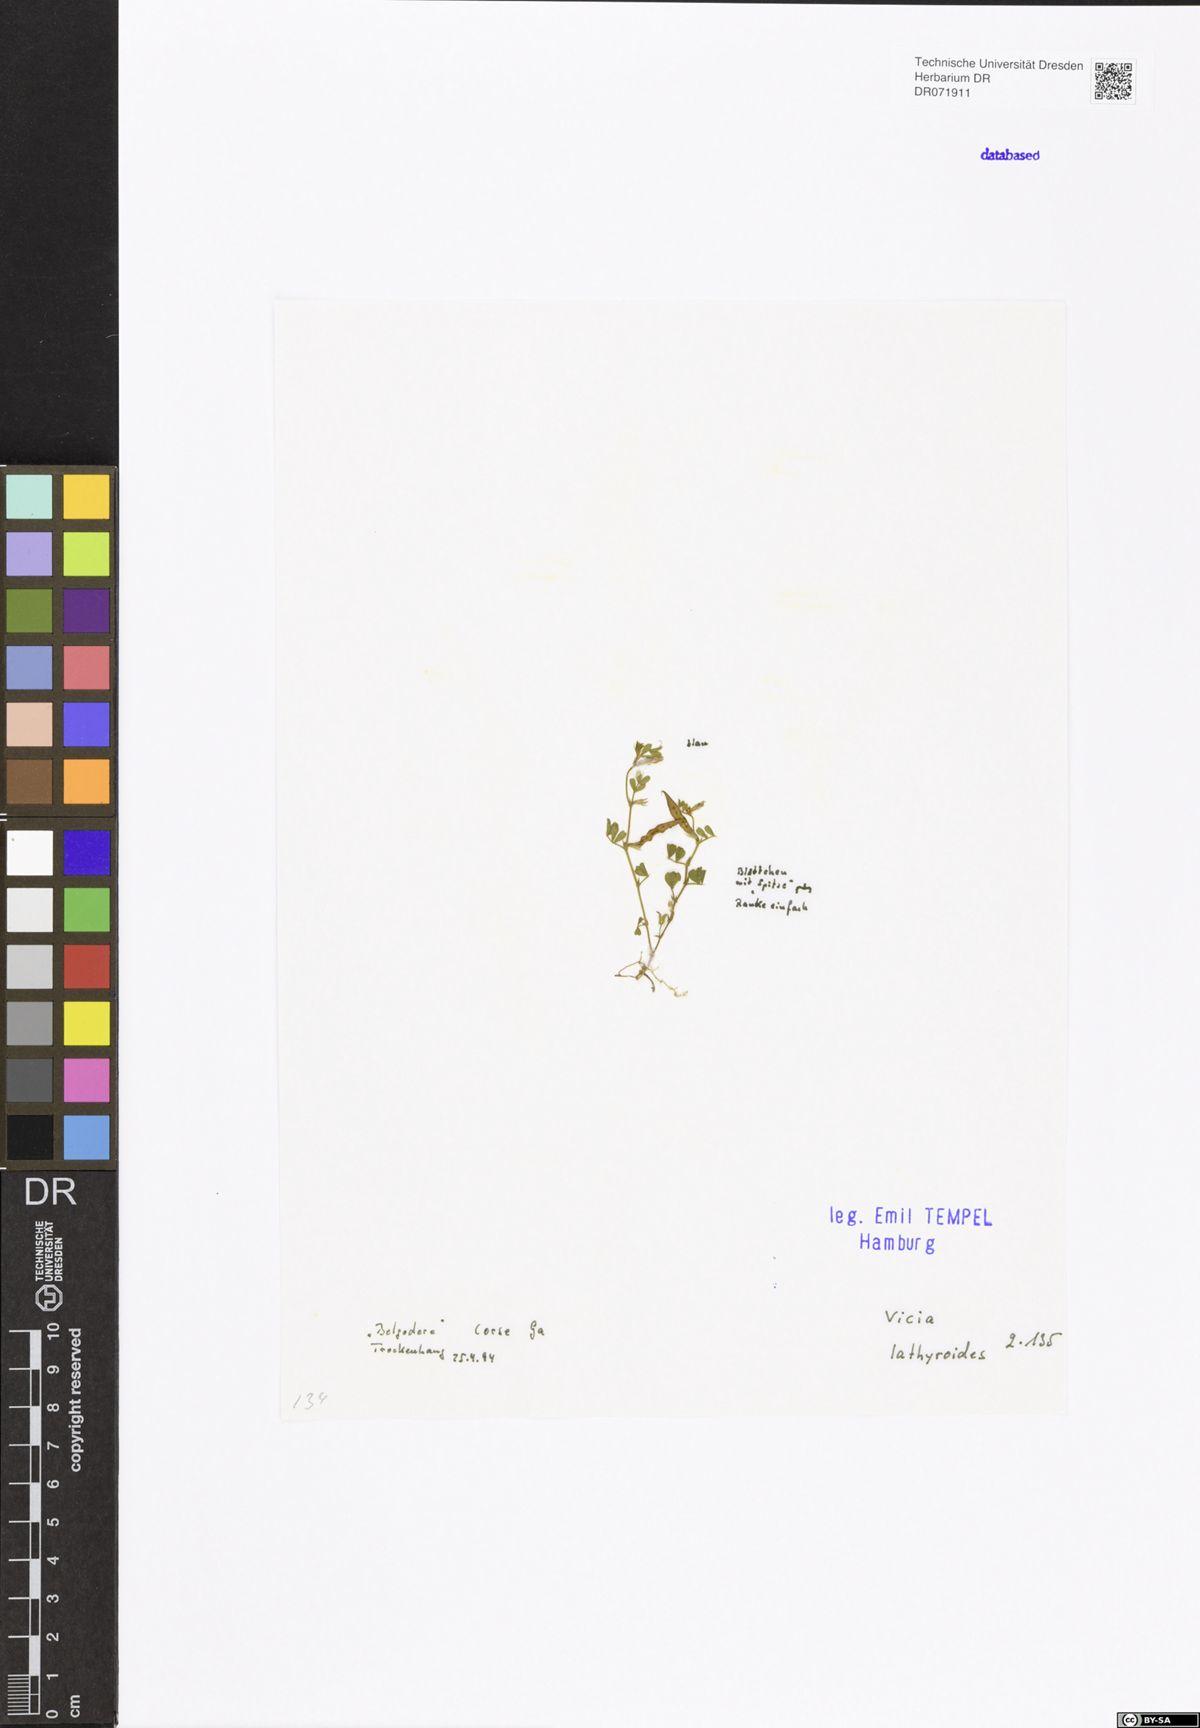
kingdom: Plantae
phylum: Tracheophyta
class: Magnoliopsida
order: Fabales
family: Fabaceae
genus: Vicia
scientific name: Vicia lathyroides
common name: Spring vetch
